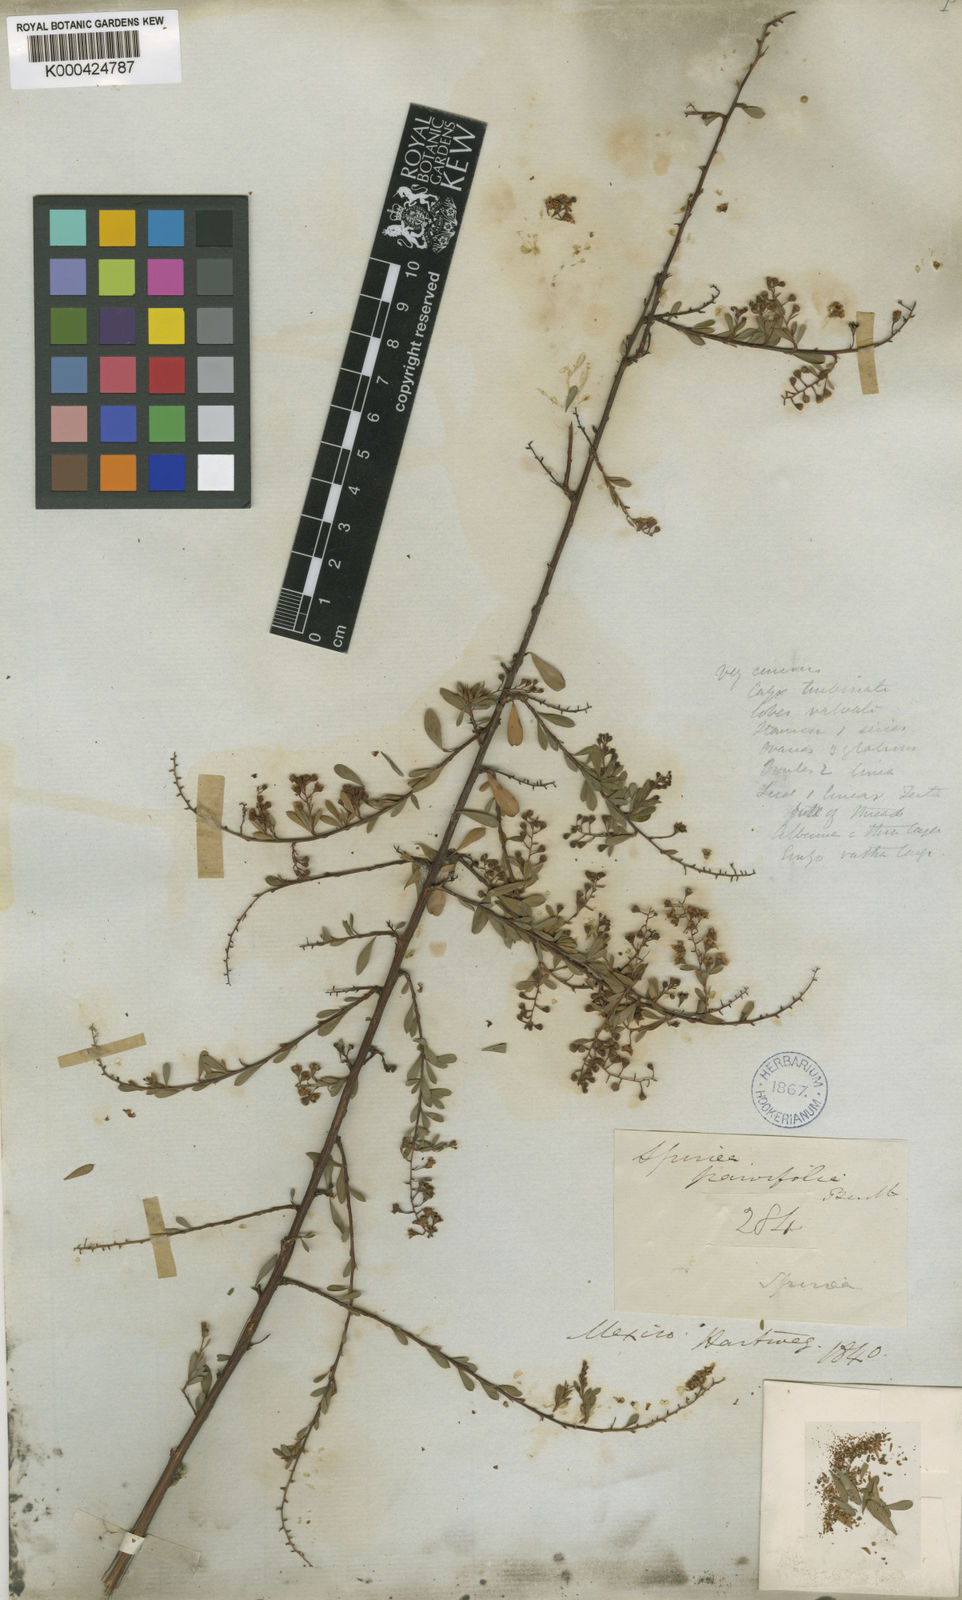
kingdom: Plantae
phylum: Tracheophyta
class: Magnoliopsida
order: Rosales
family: Rosaceae
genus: Spiraea
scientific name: Spiraea
